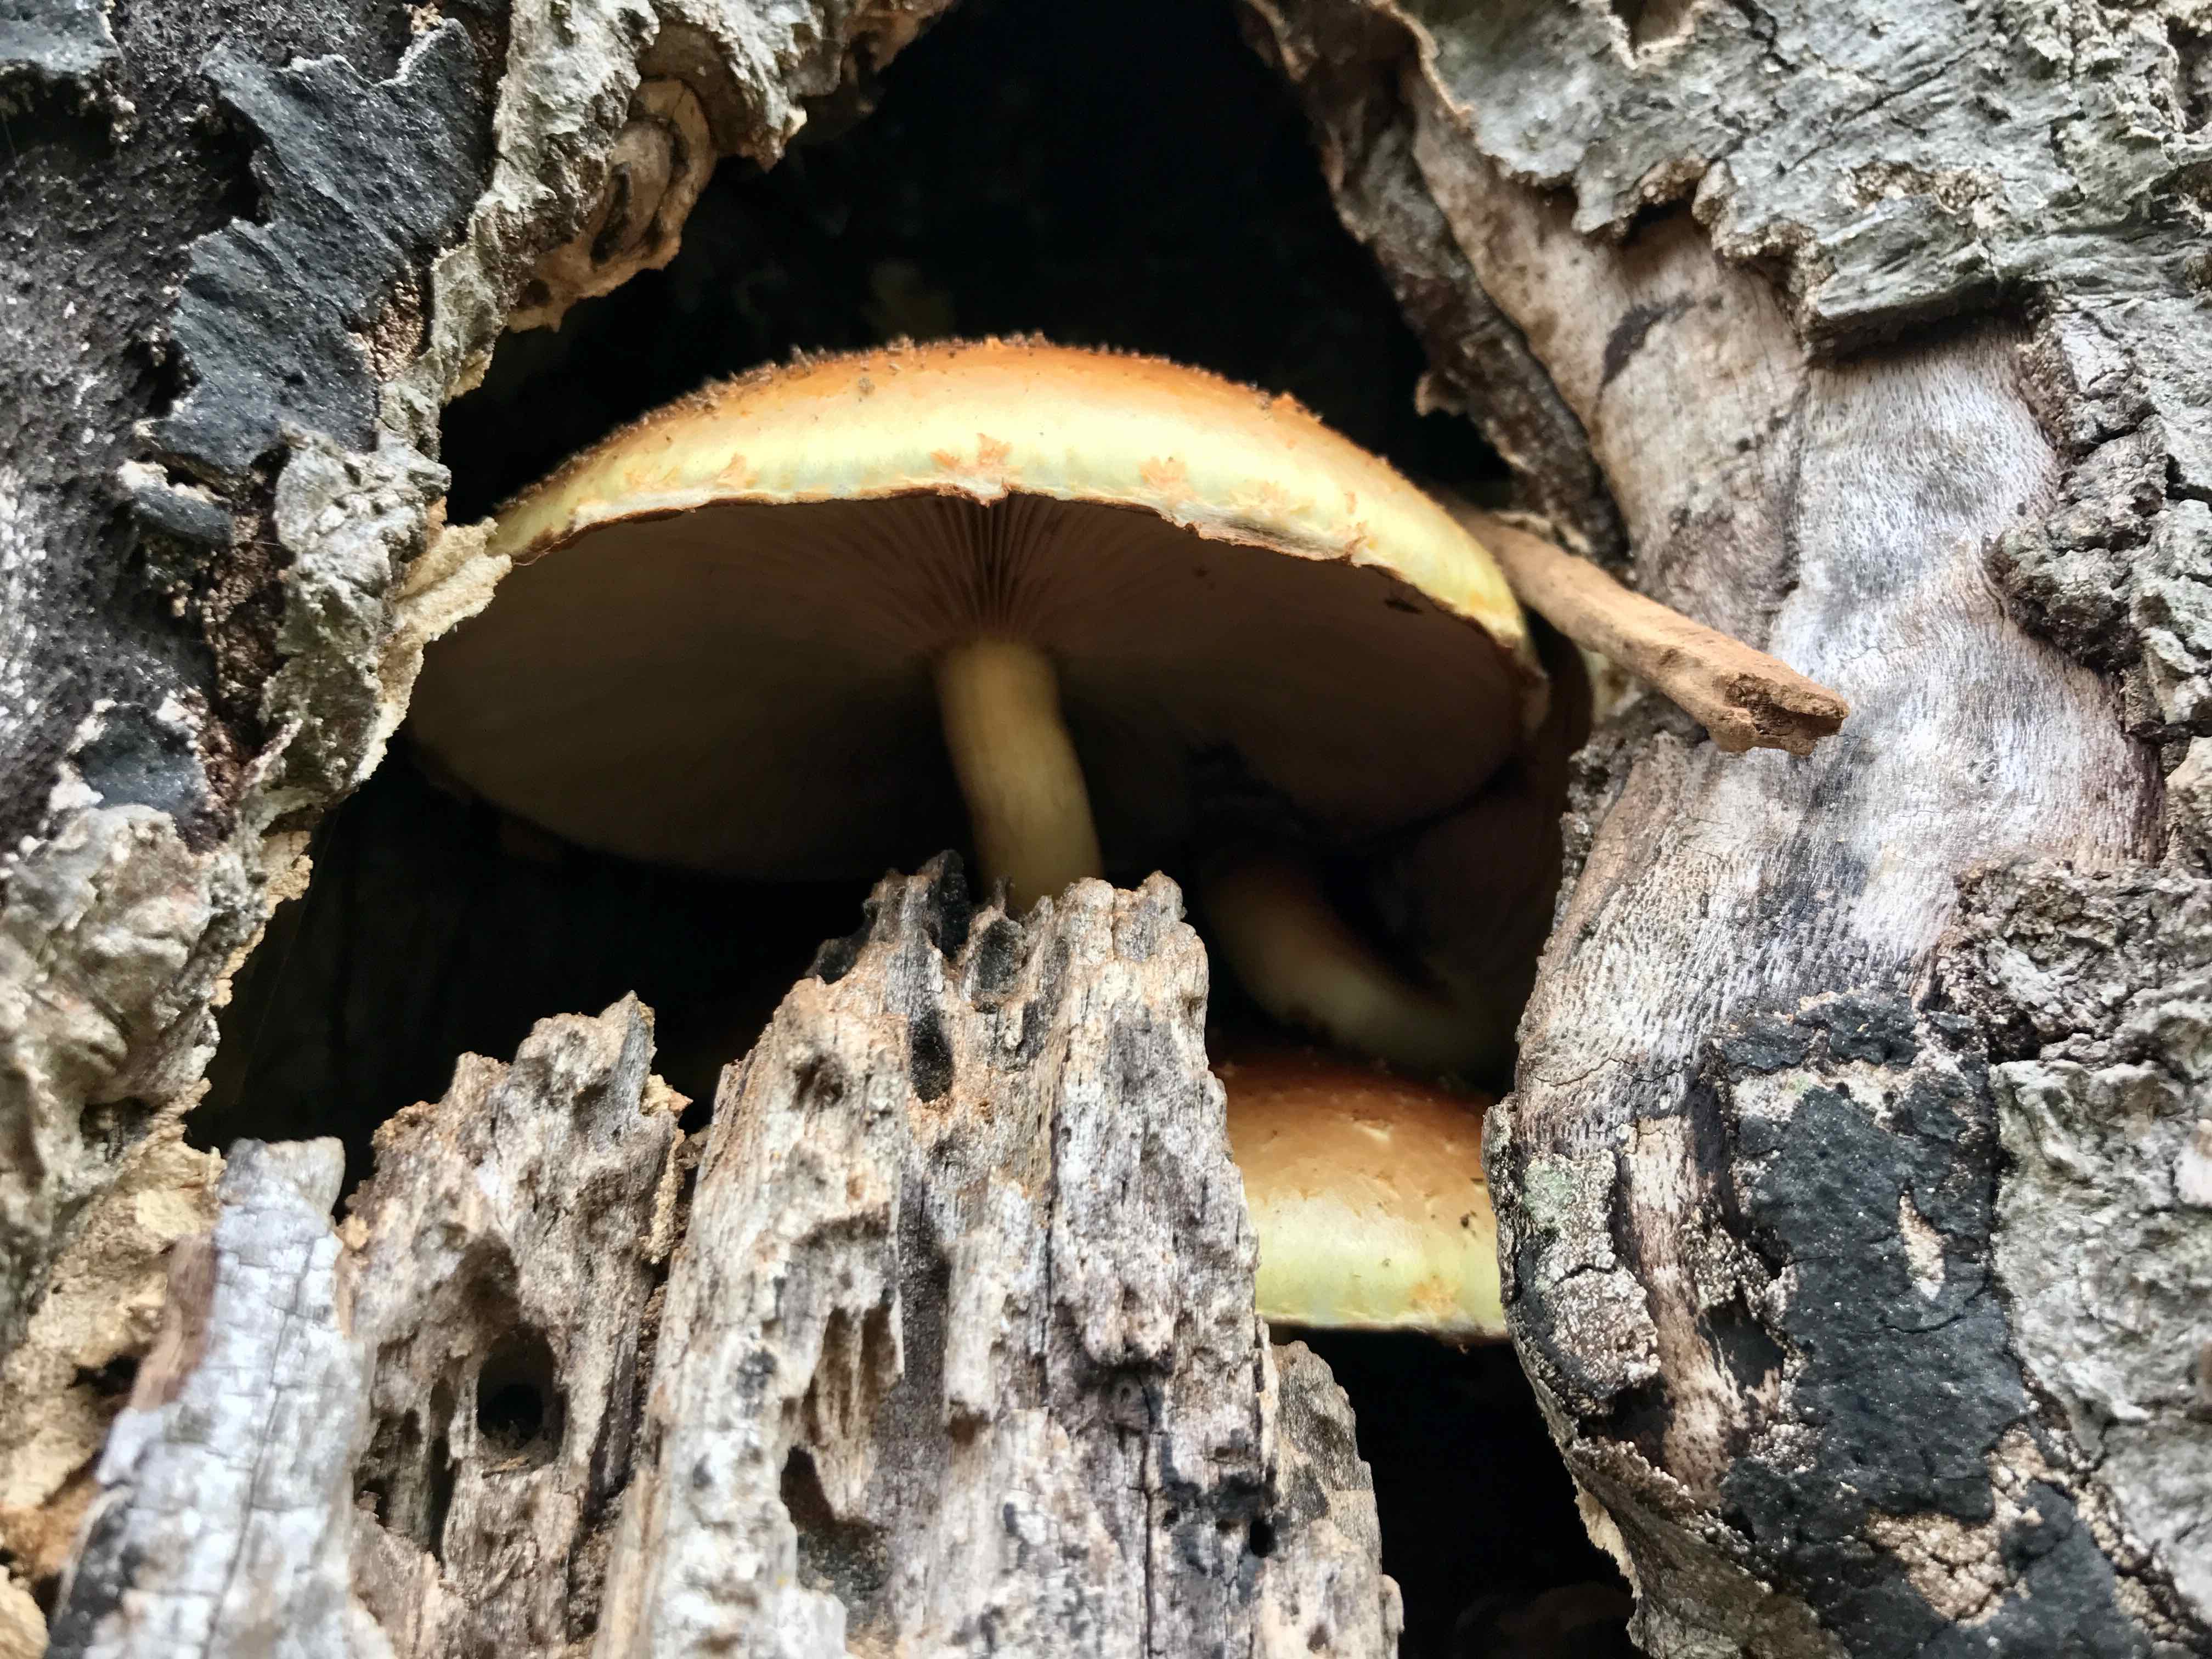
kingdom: Fungi
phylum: Basidiomycota
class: Agaricomycetes
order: Agaricales
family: Strophariaceae
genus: Pholiota
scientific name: Pholiota adiposa
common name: højtsiddende skælhat
